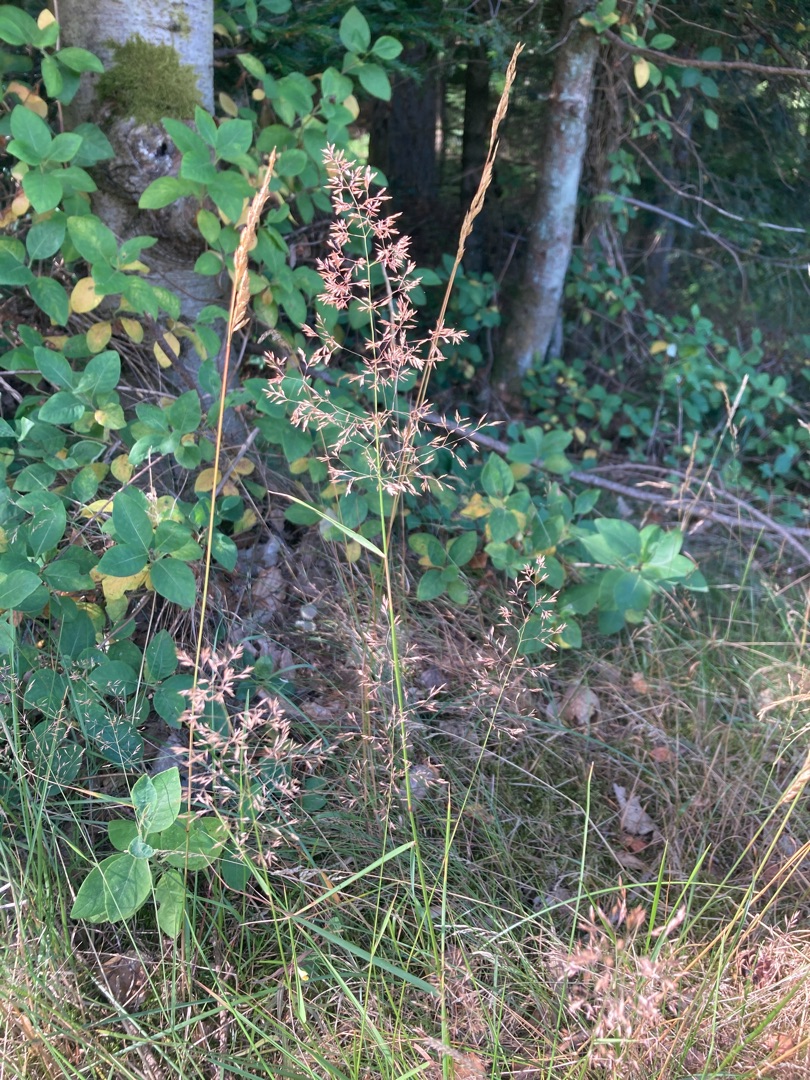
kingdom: Plantae
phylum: Tracheophyta
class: Liliopsida
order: Poales
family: Poaceae
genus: Agrostis
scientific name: Agrostis gigantea
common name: Stortoppet hvene
